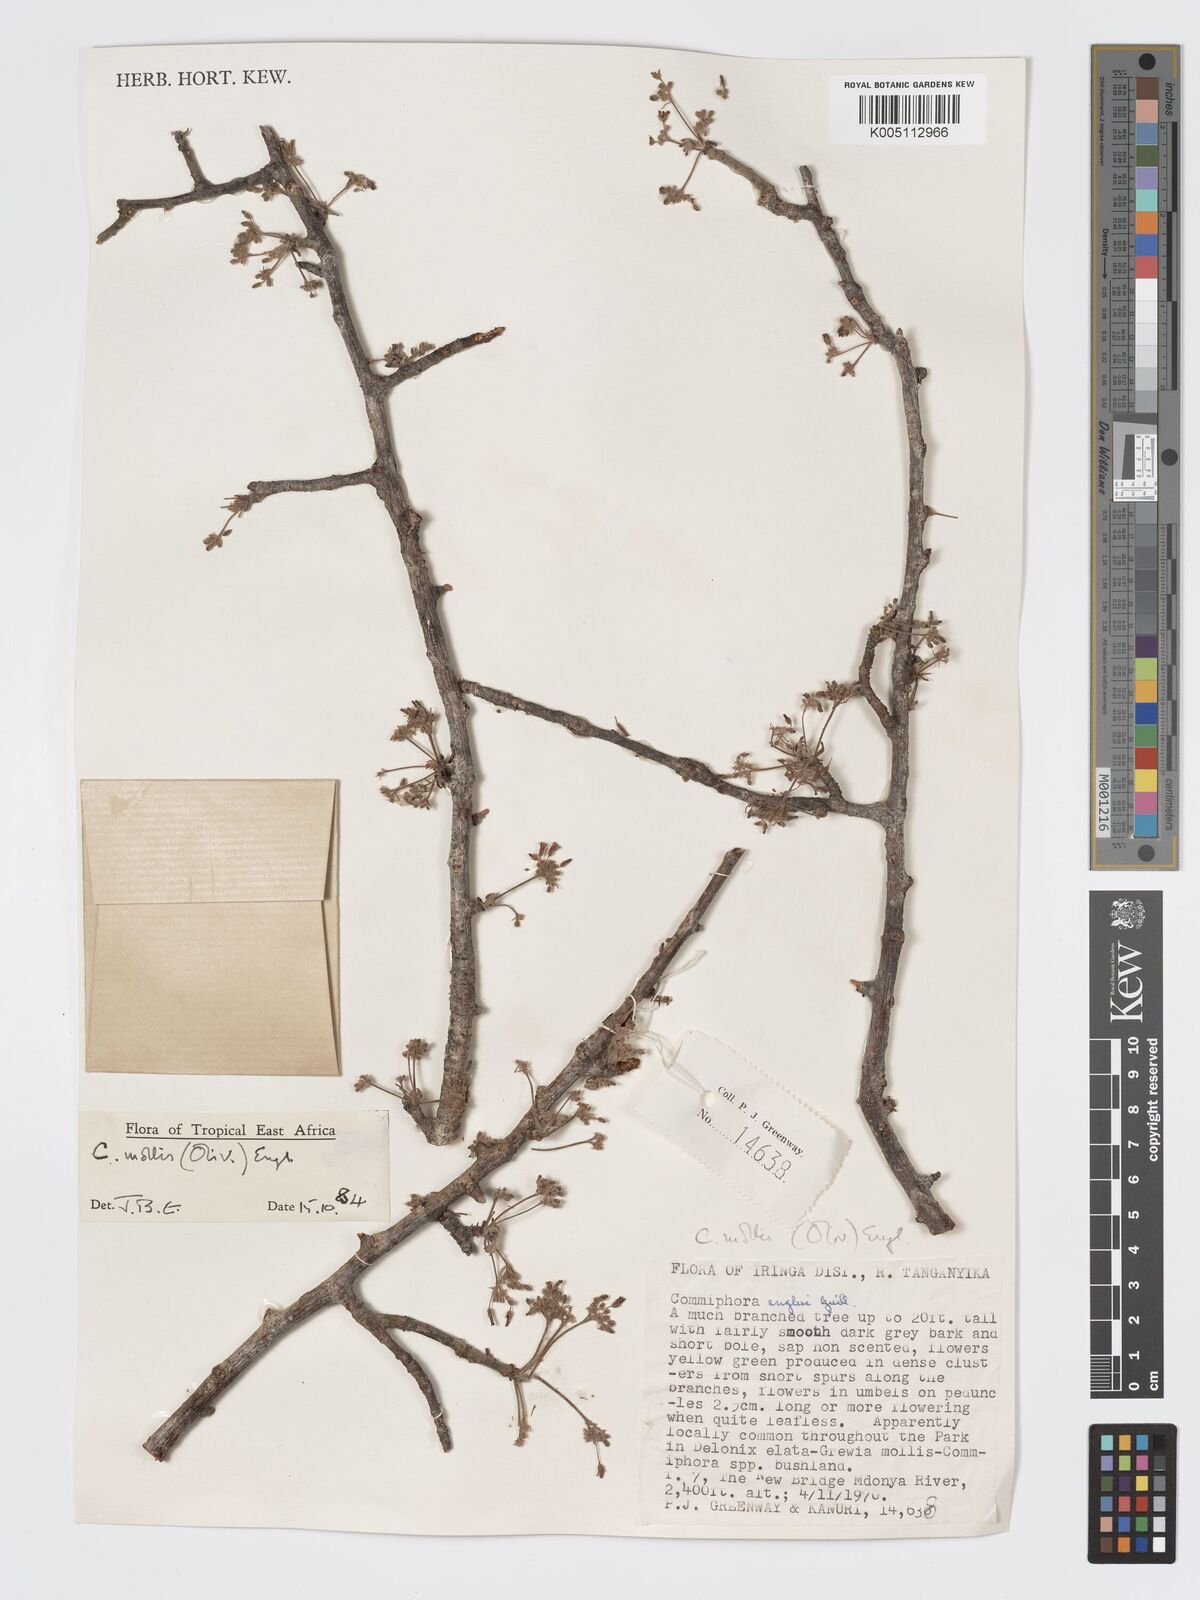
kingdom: Plantae
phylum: Tracheophyta
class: Magnoliopsida
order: Sapindales
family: Burseraceae
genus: Commiphora
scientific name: Commiphora
